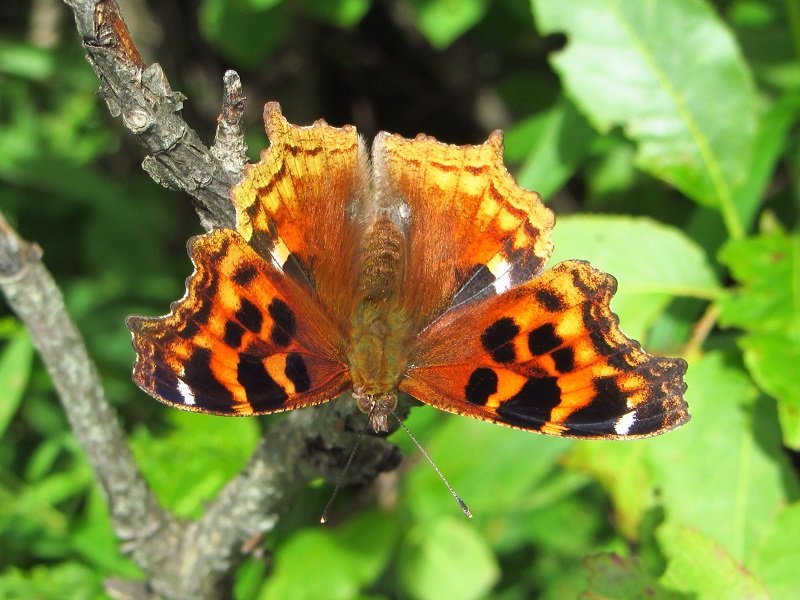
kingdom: Animalia
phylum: Arthropoda
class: Insecta
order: Lepidoptera
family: Nymphalidae
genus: Polygonia
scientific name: Polygonia vaualbum
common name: Compton Tortoiseshell
